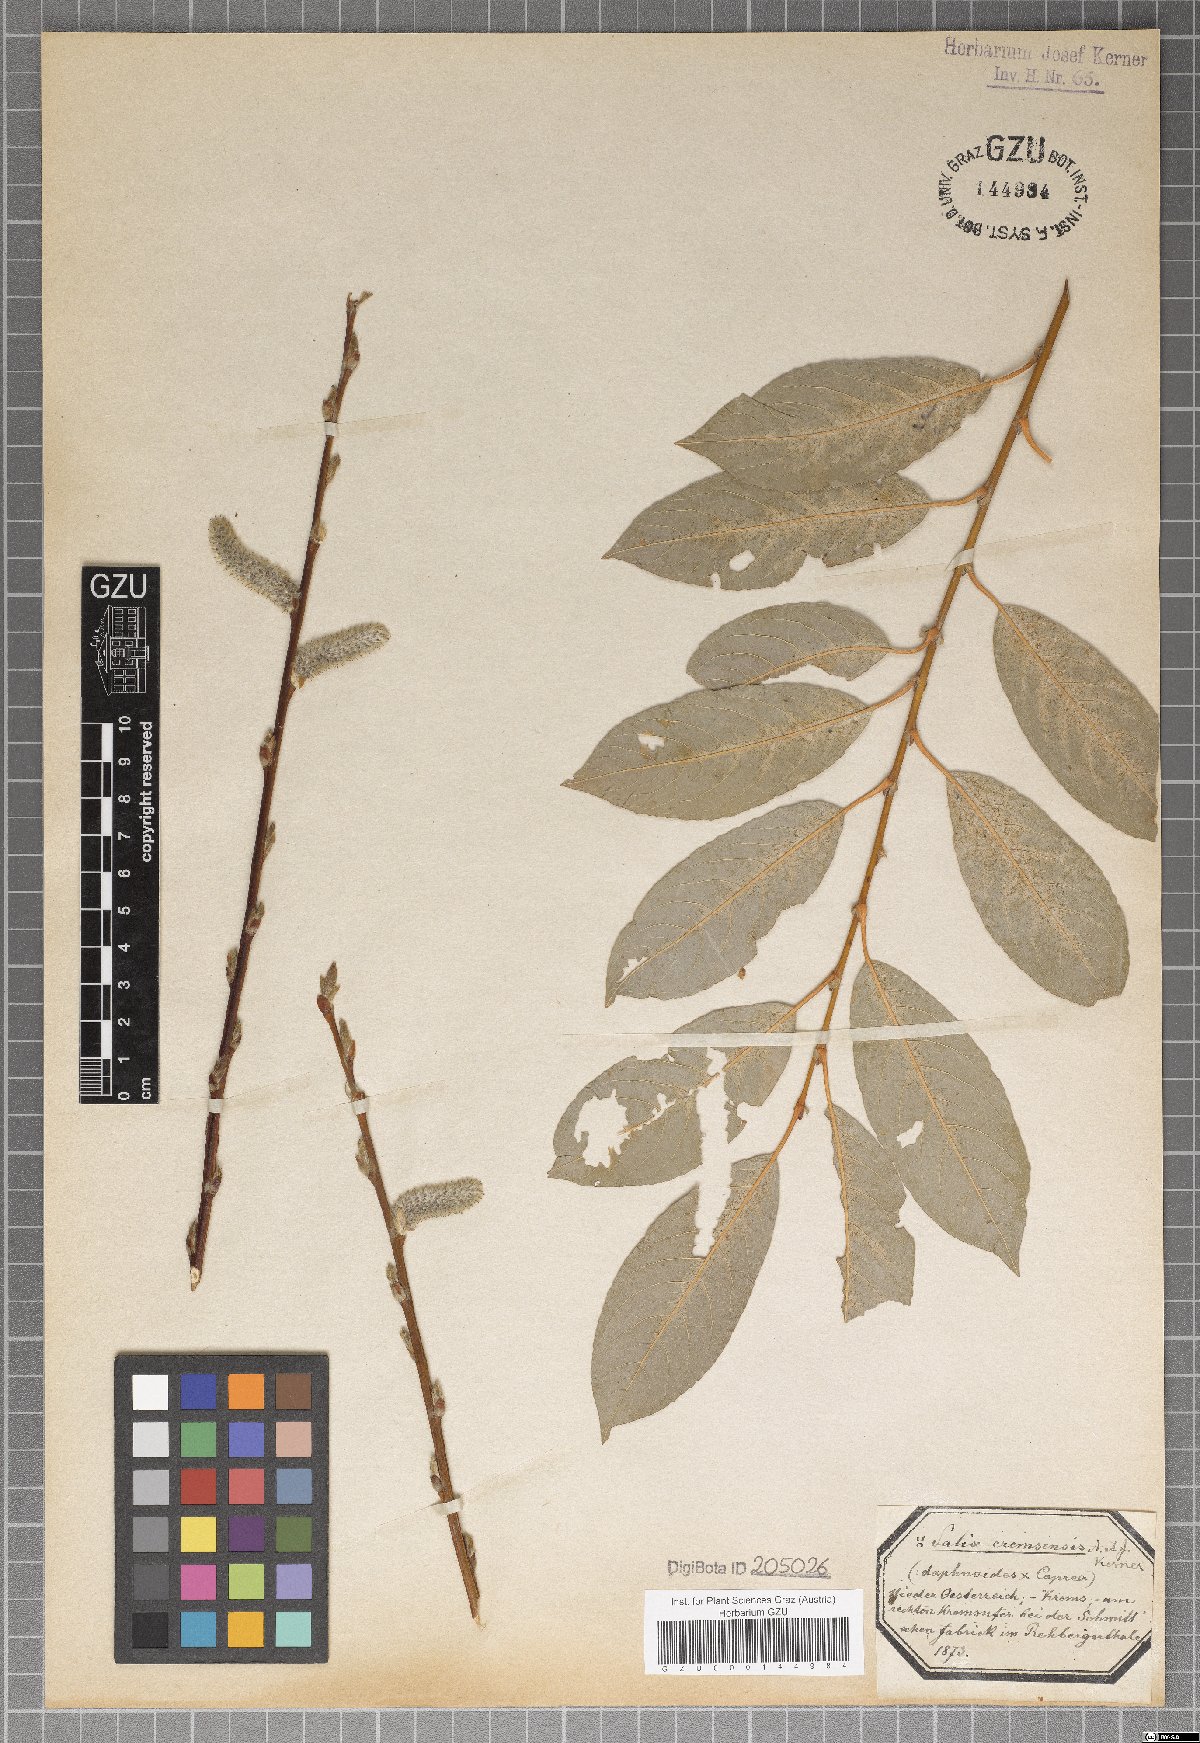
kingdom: Plantae
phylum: Tracheophyta
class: Magnoliopsida
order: Malpighiales
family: Salicaceae
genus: Salix
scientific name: Salix erdingeri
